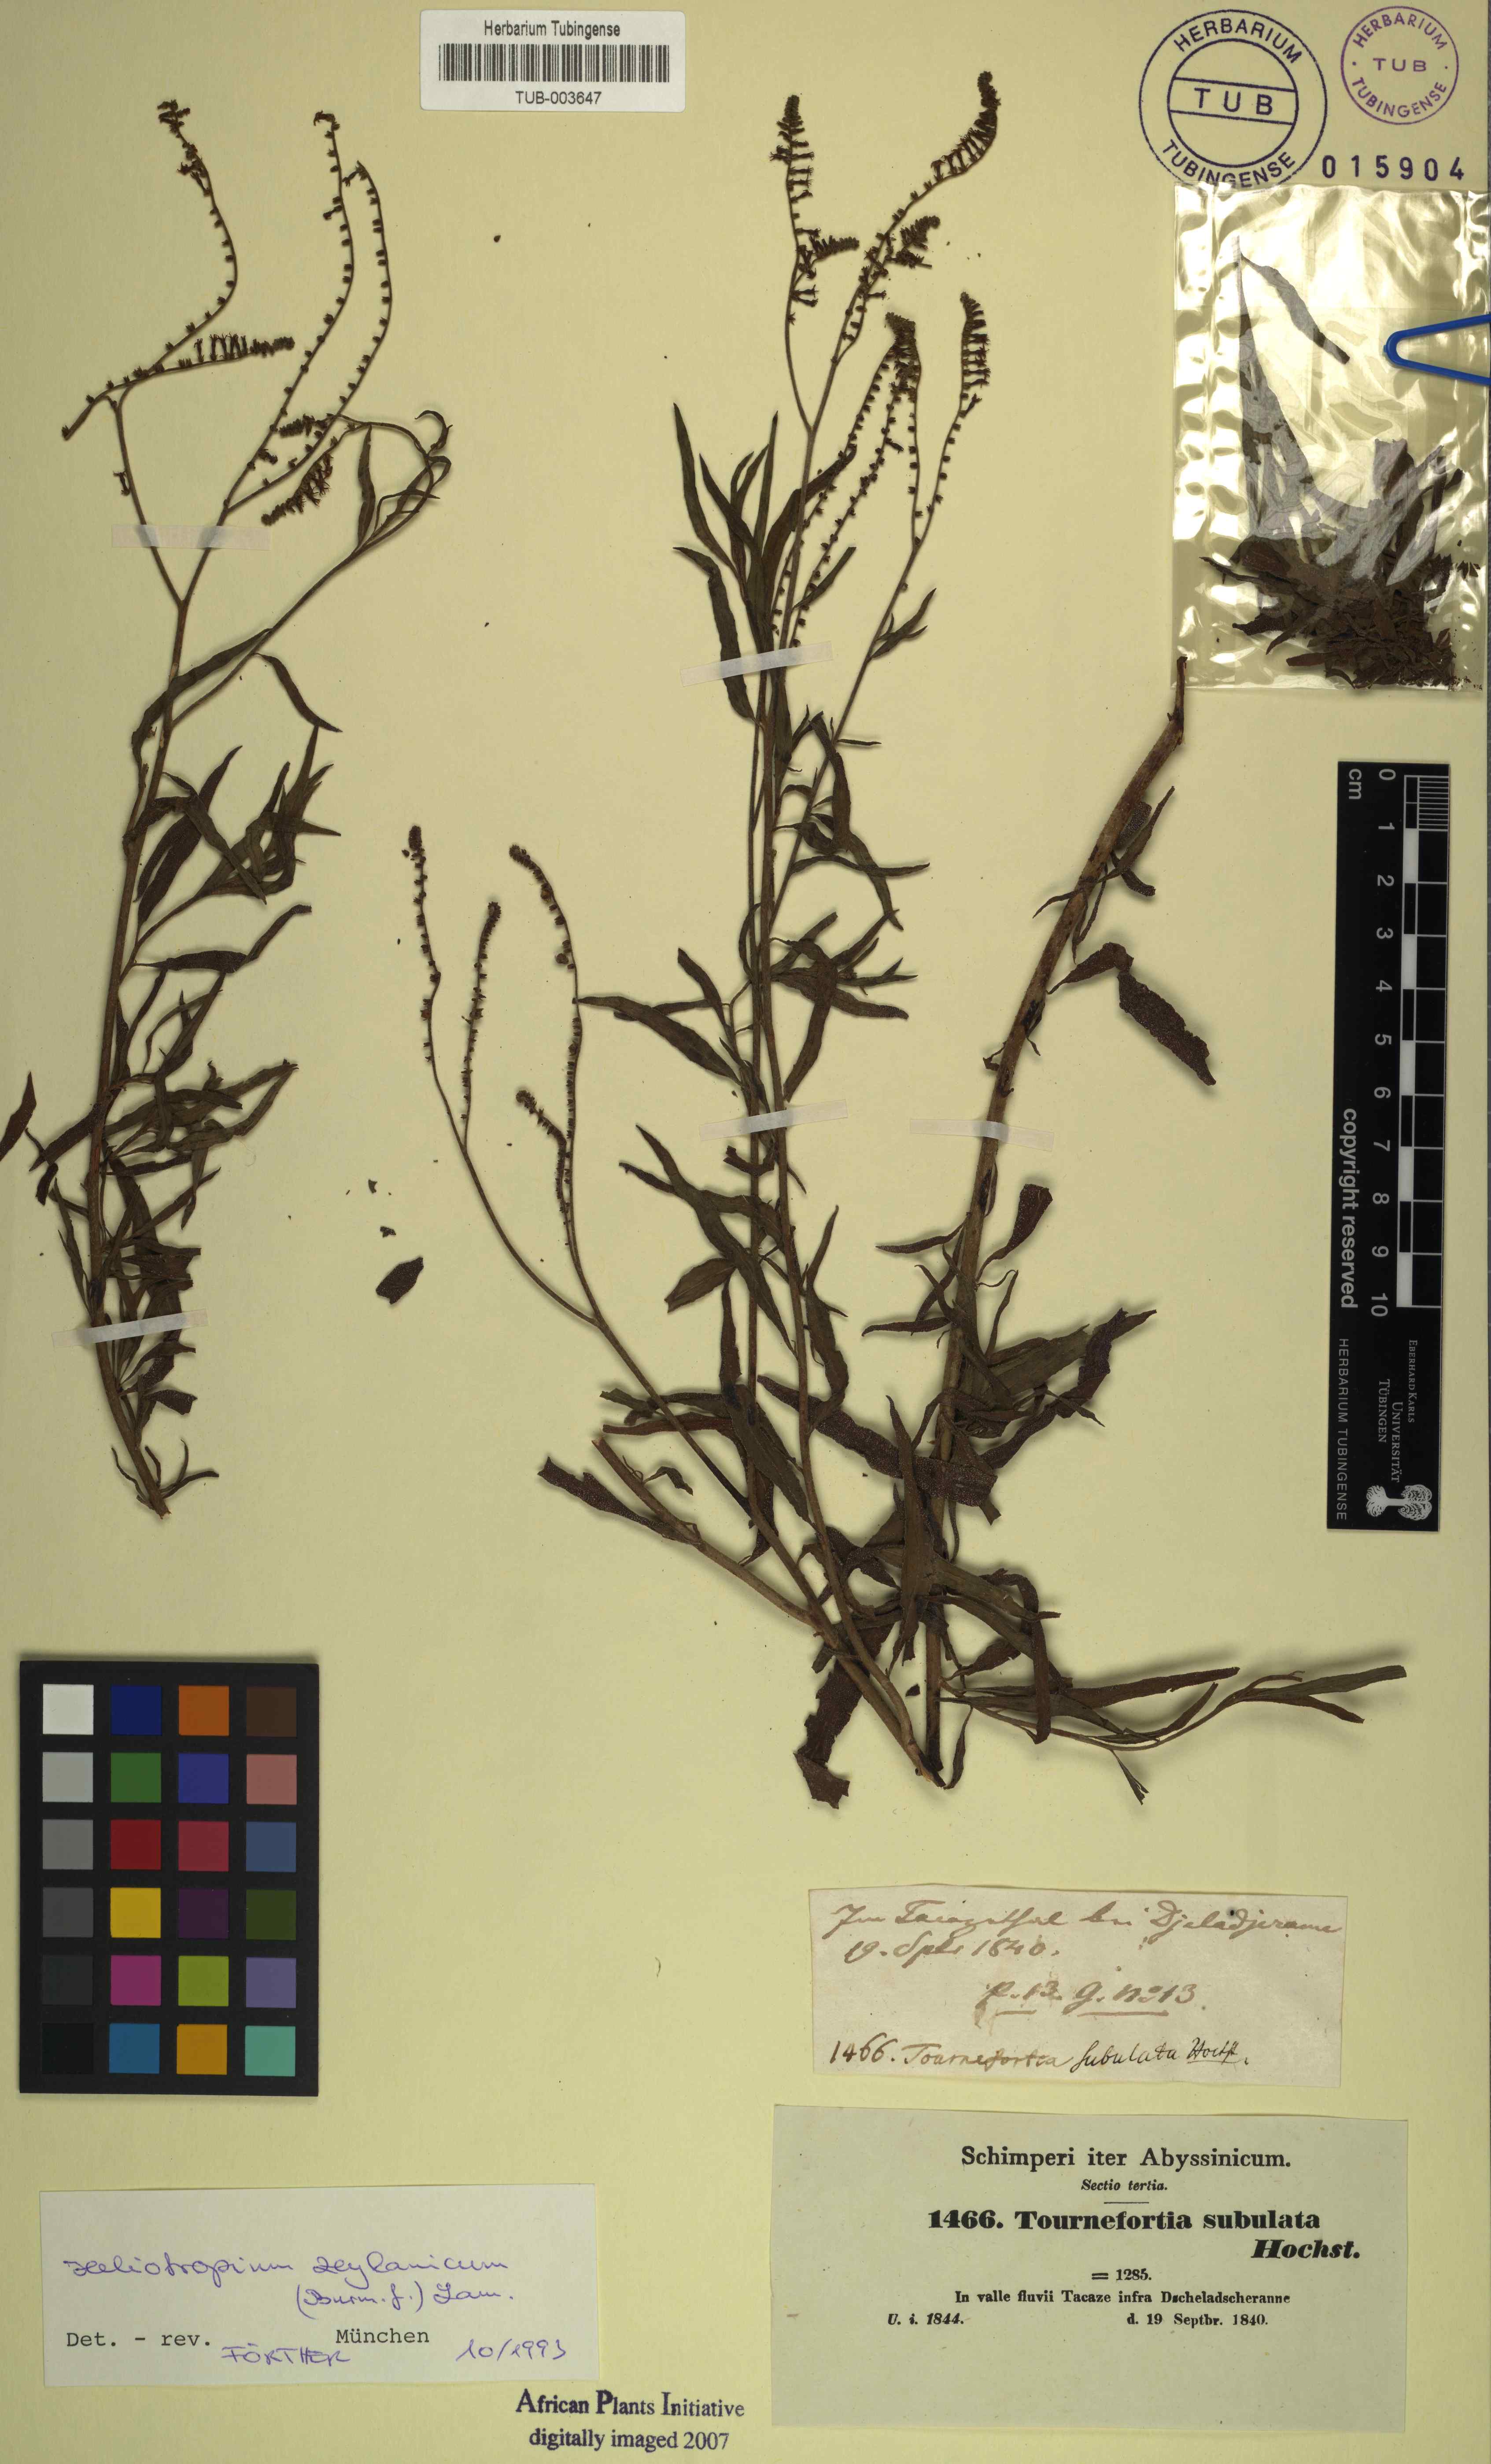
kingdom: Plantae
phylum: Tracheophyta
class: Magnoliopsida
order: Boraginales
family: Heliotropiaceae
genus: Heliotropium
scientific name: Heliotropium zeylanicum
